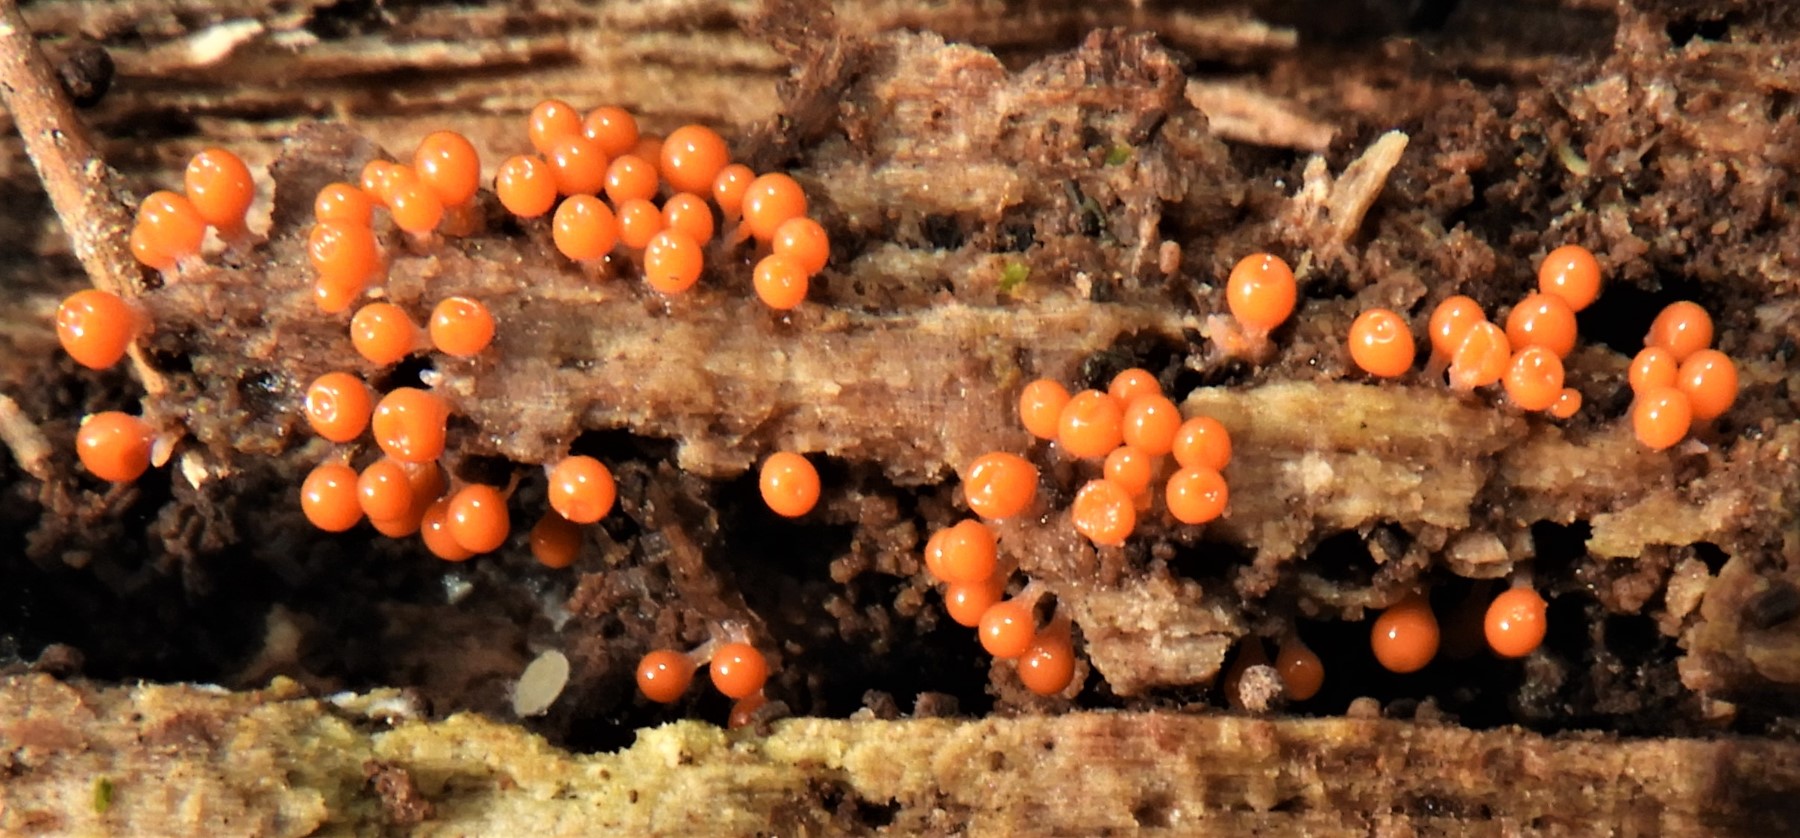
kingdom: Protozoa
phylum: Mycetozoa
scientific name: Mycetozoa
